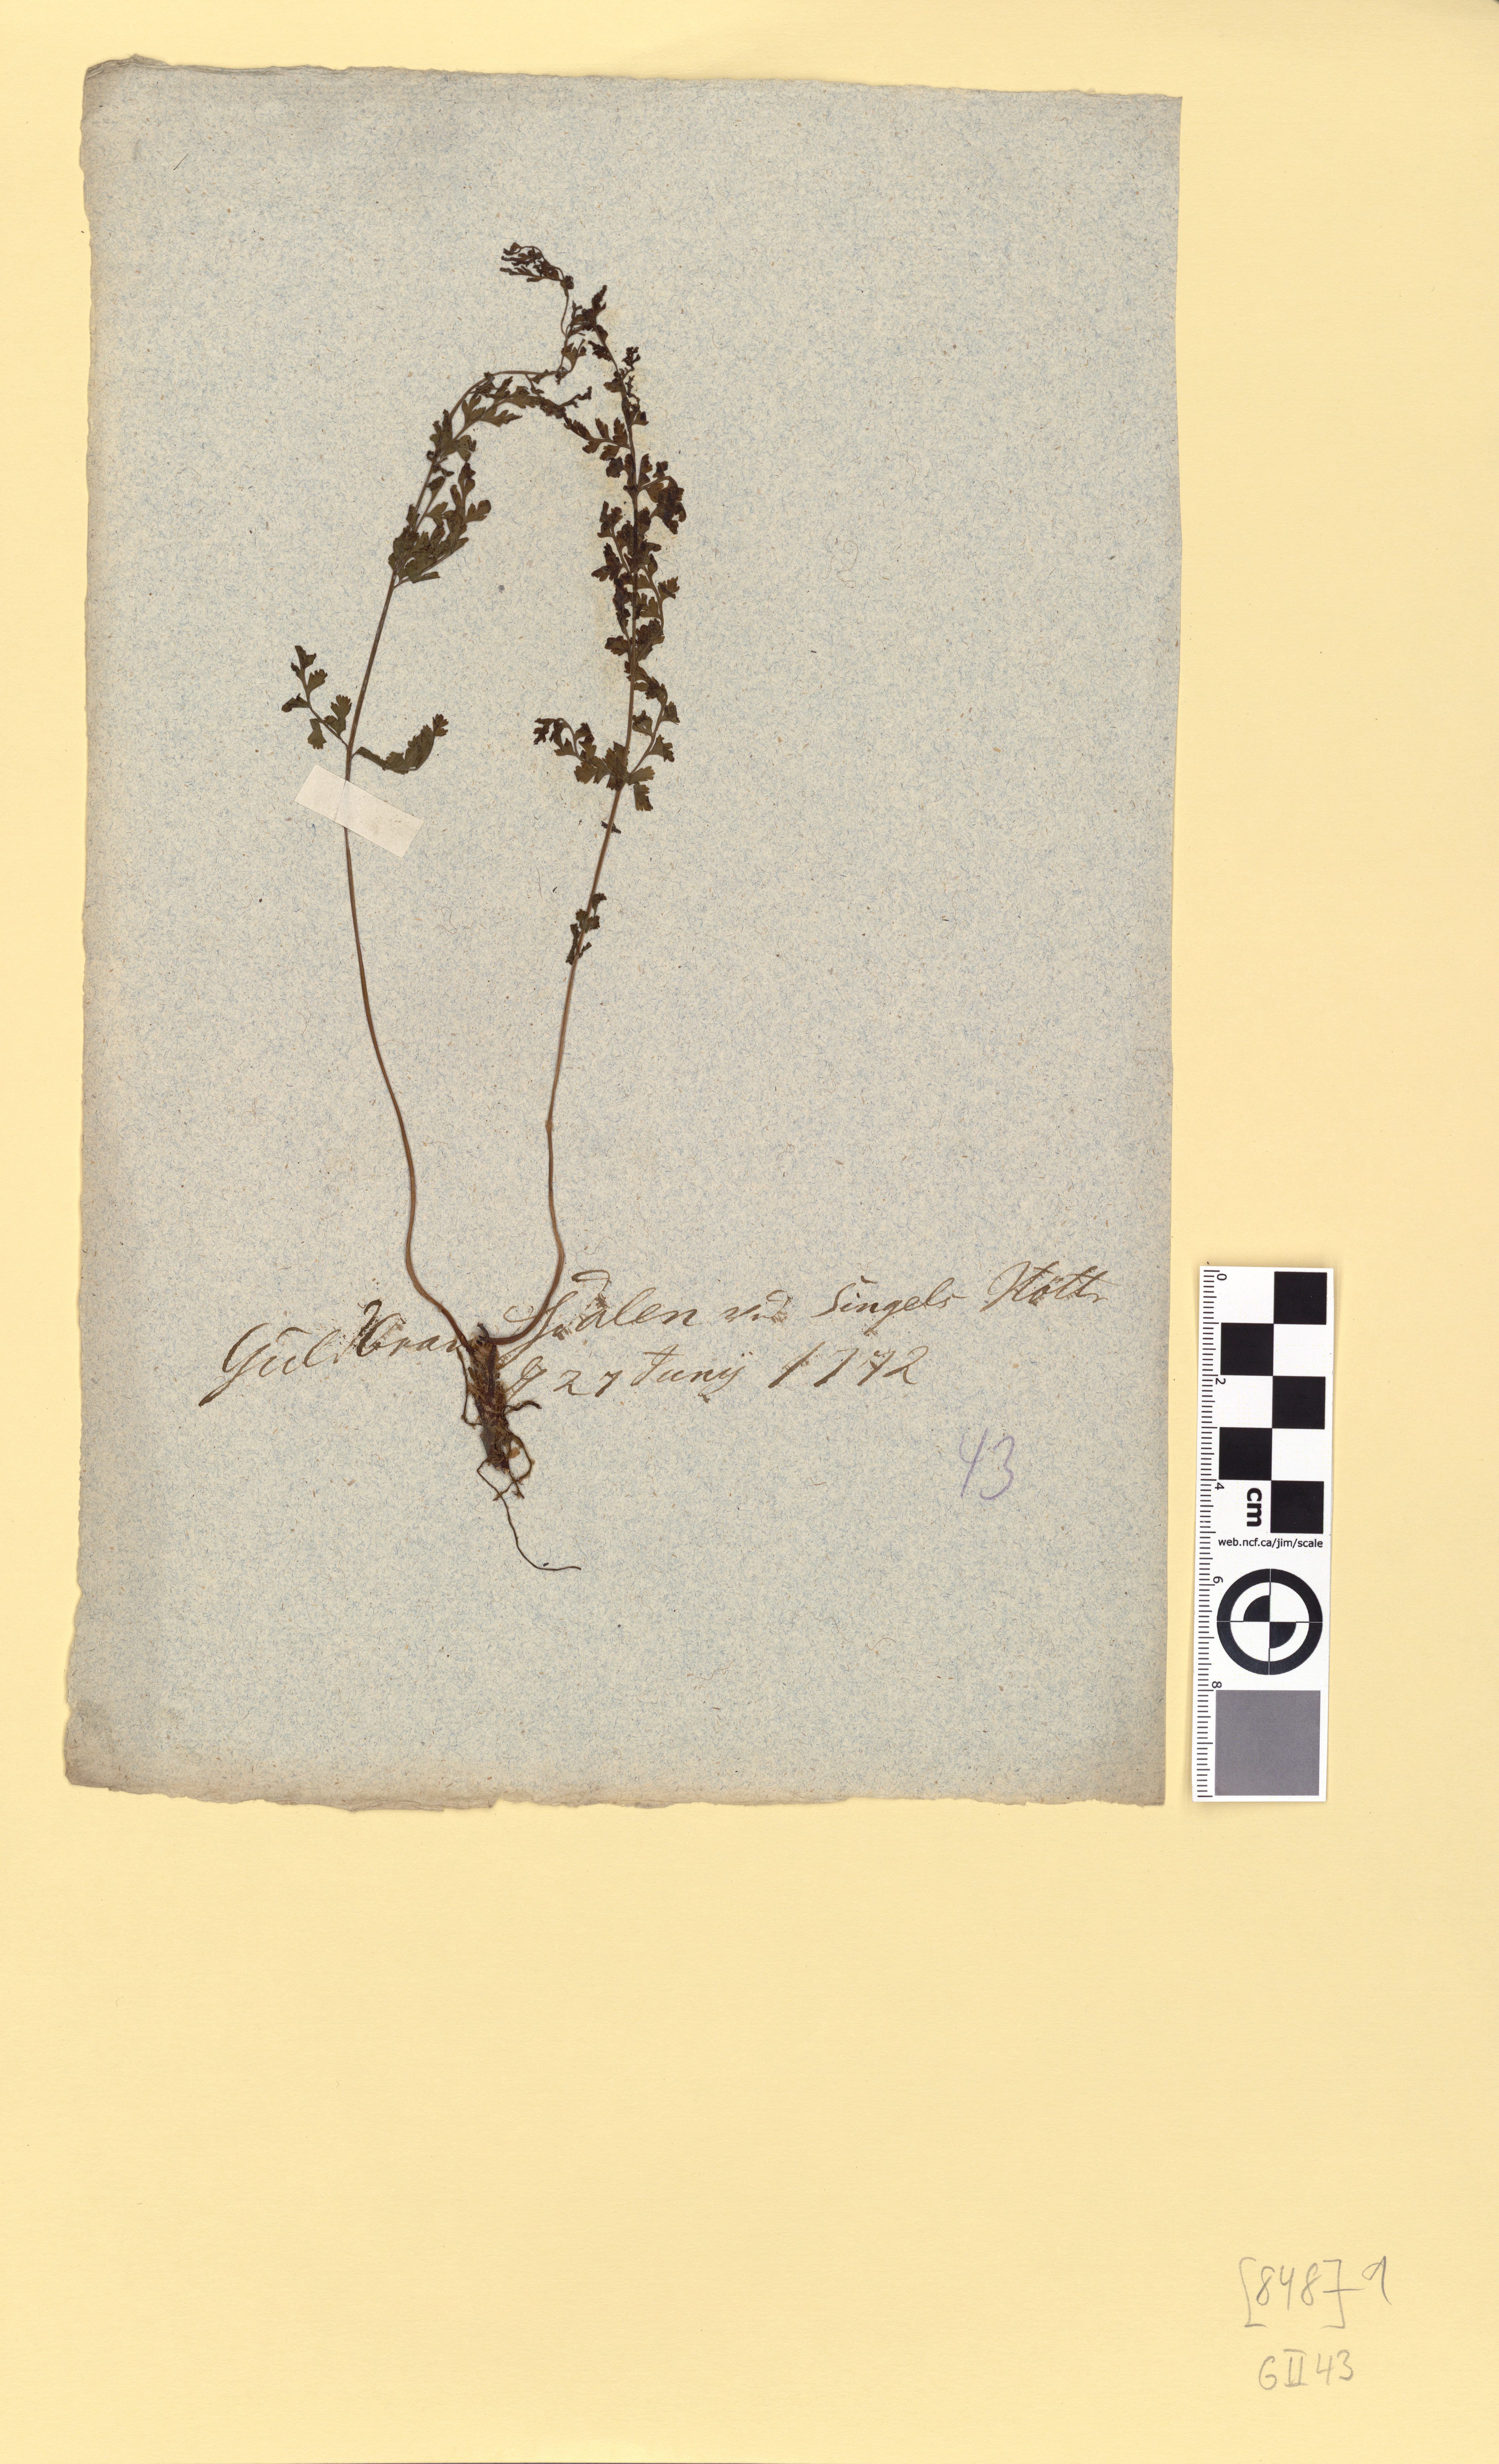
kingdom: Plantae
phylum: Tracheophyta
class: Polypodiopsida
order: Polypodiales
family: Cystopteridaceae
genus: Cystopteris
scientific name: Cystopteris fragilis
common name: Brittle bladder fern
